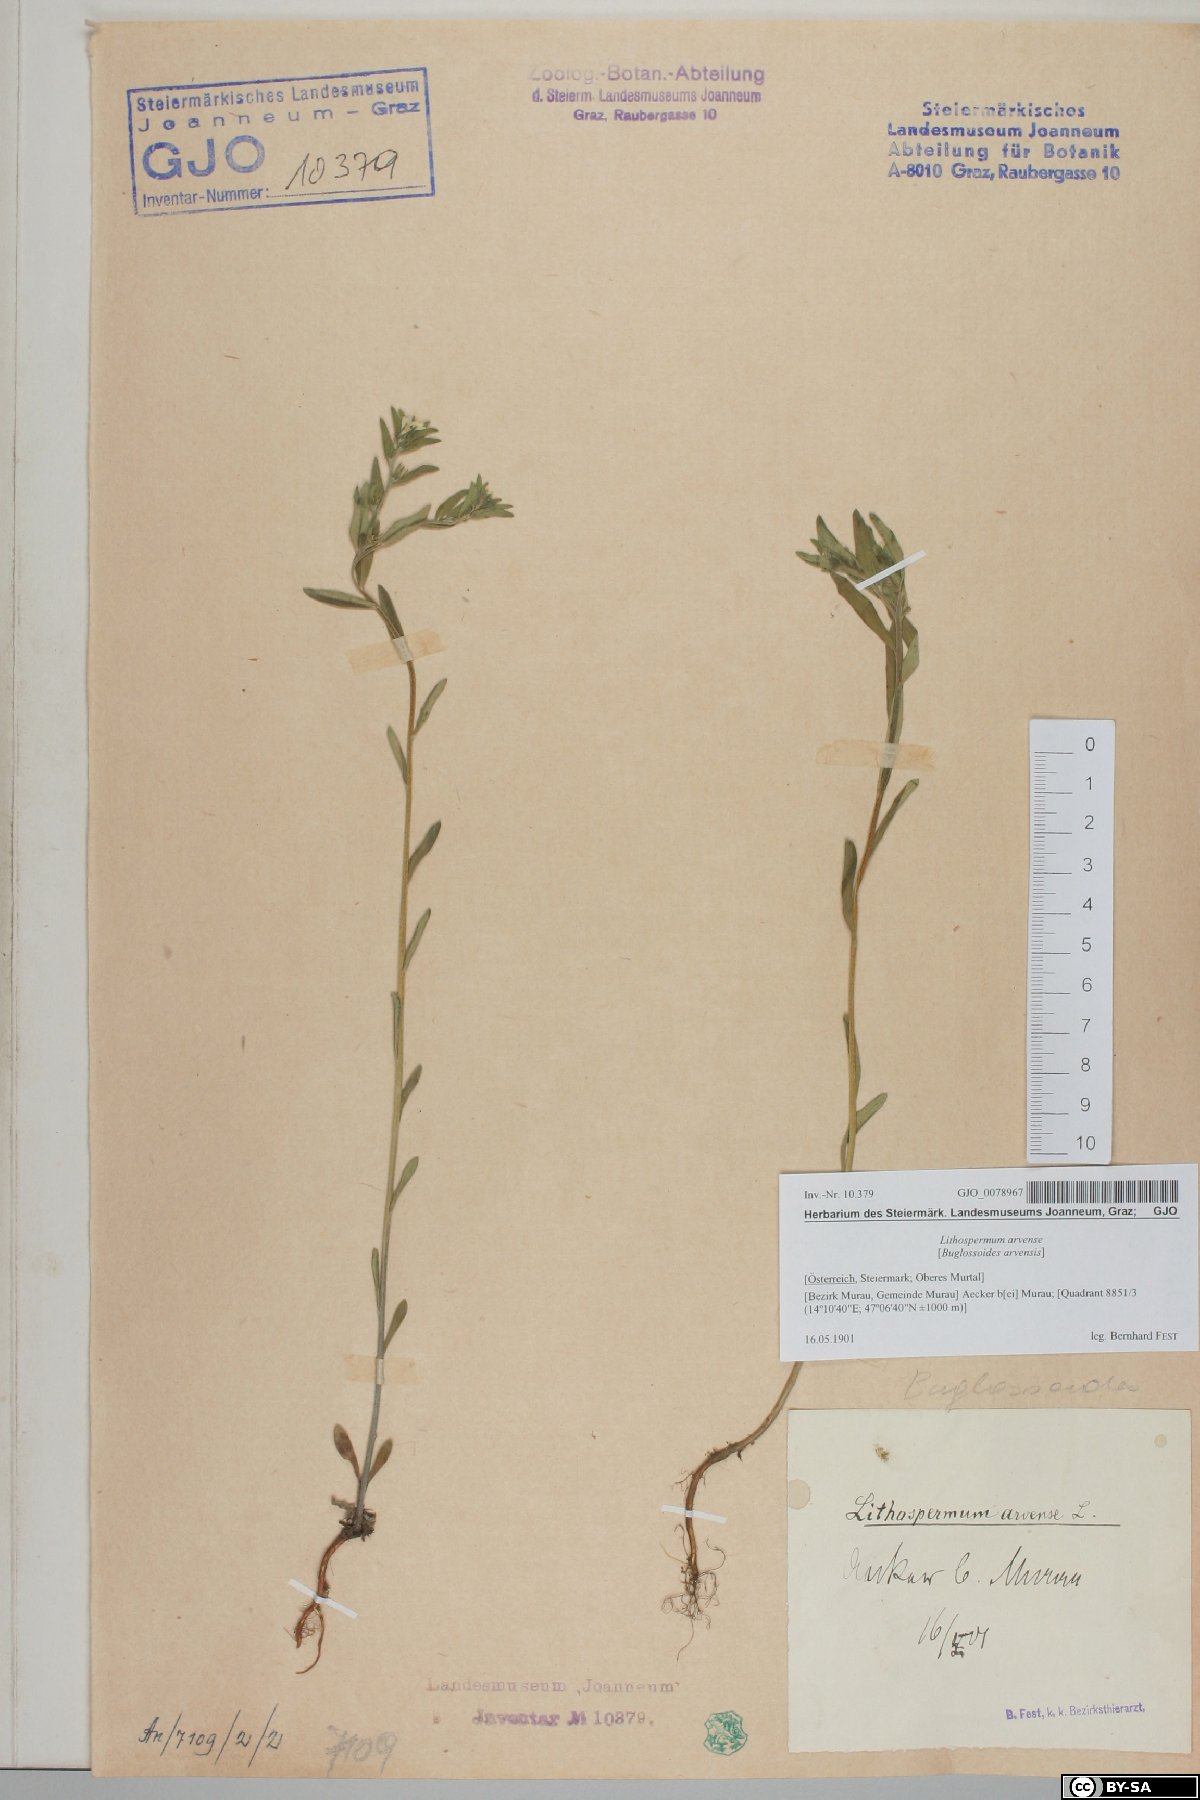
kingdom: Plantae
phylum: Tracheophyta
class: Magnoliopsida
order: Boraginales
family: Boraginaceae
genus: Buglossoides
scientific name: Buglossoides arvensis
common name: Corn gromwell
